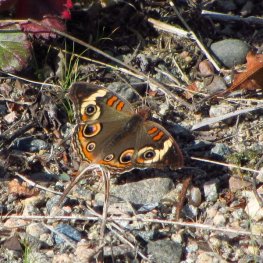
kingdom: Animalia
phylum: Arthropoda
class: Insecta
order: Lepidoptera
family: Nymphalidae
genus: Junonia
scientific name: Junonia coenia
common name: Common Buckeye
